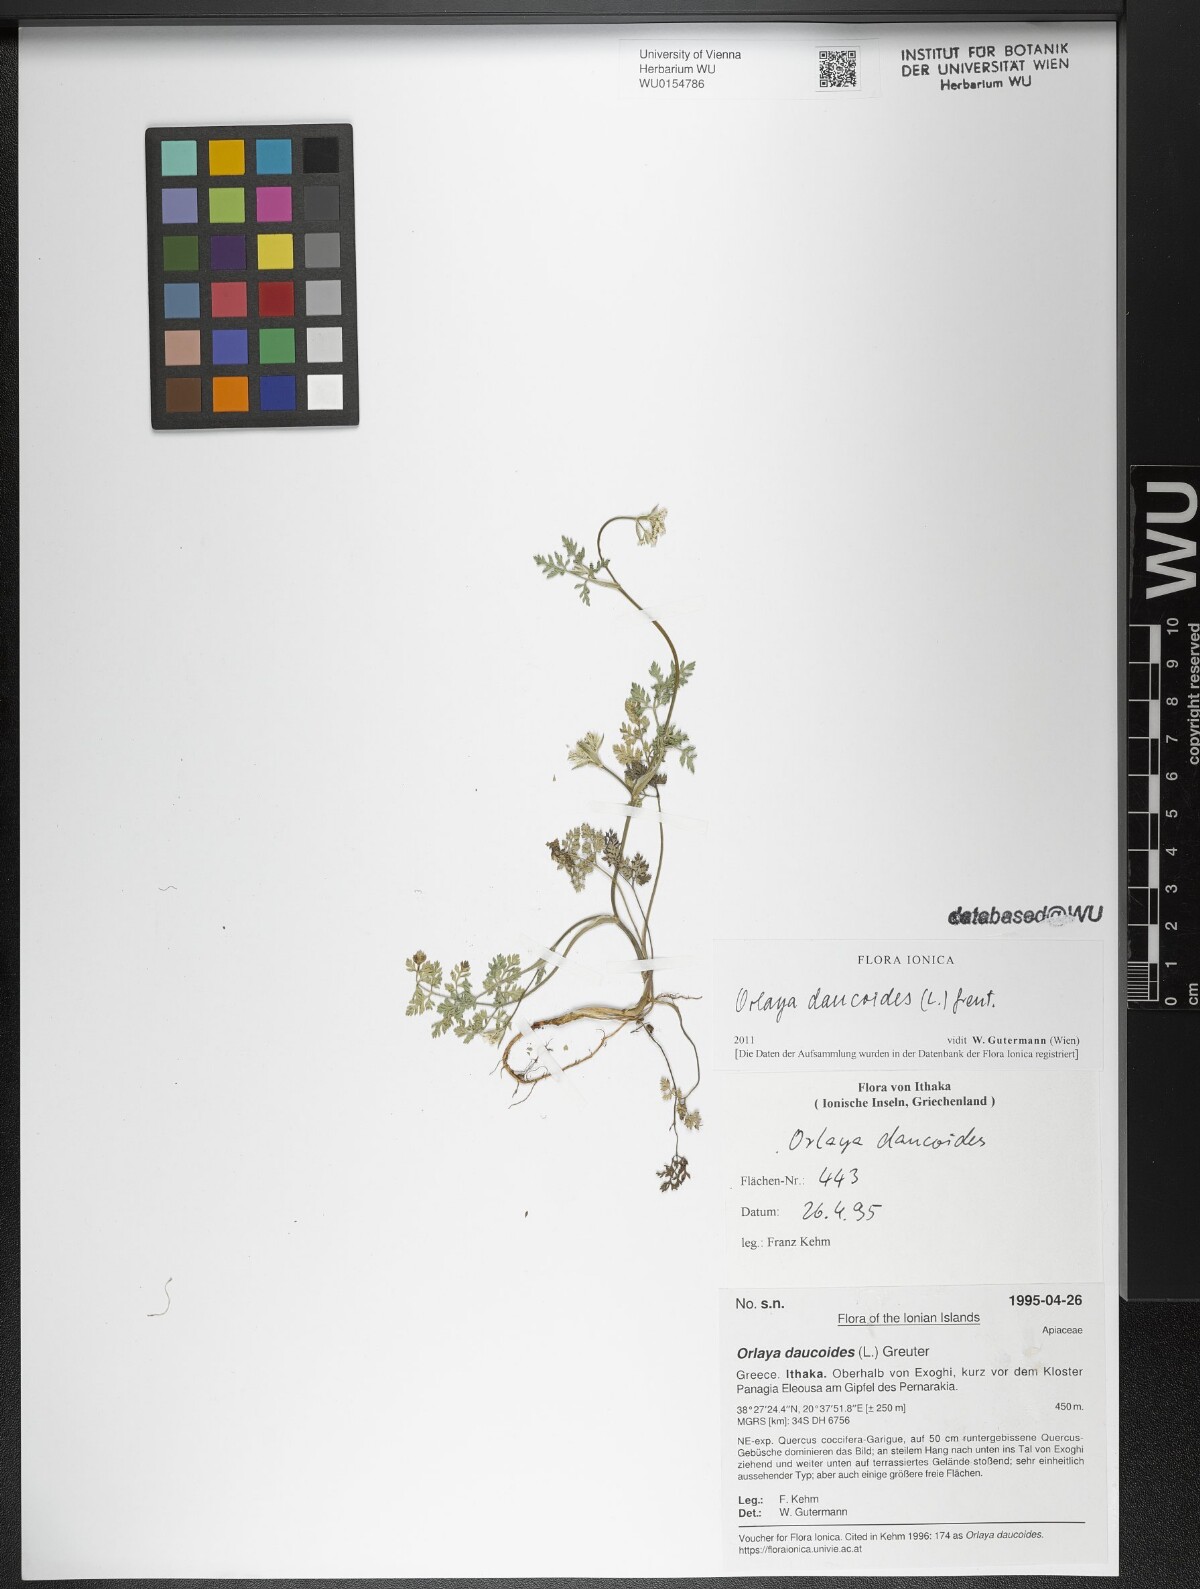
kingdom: Plantae
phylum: Tracheophyta
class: Magnoliopsida
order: Apiales
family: Apiaceae
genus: Orlaya
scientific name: Orlaya daucoides
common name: Flat-fruit orlaya
